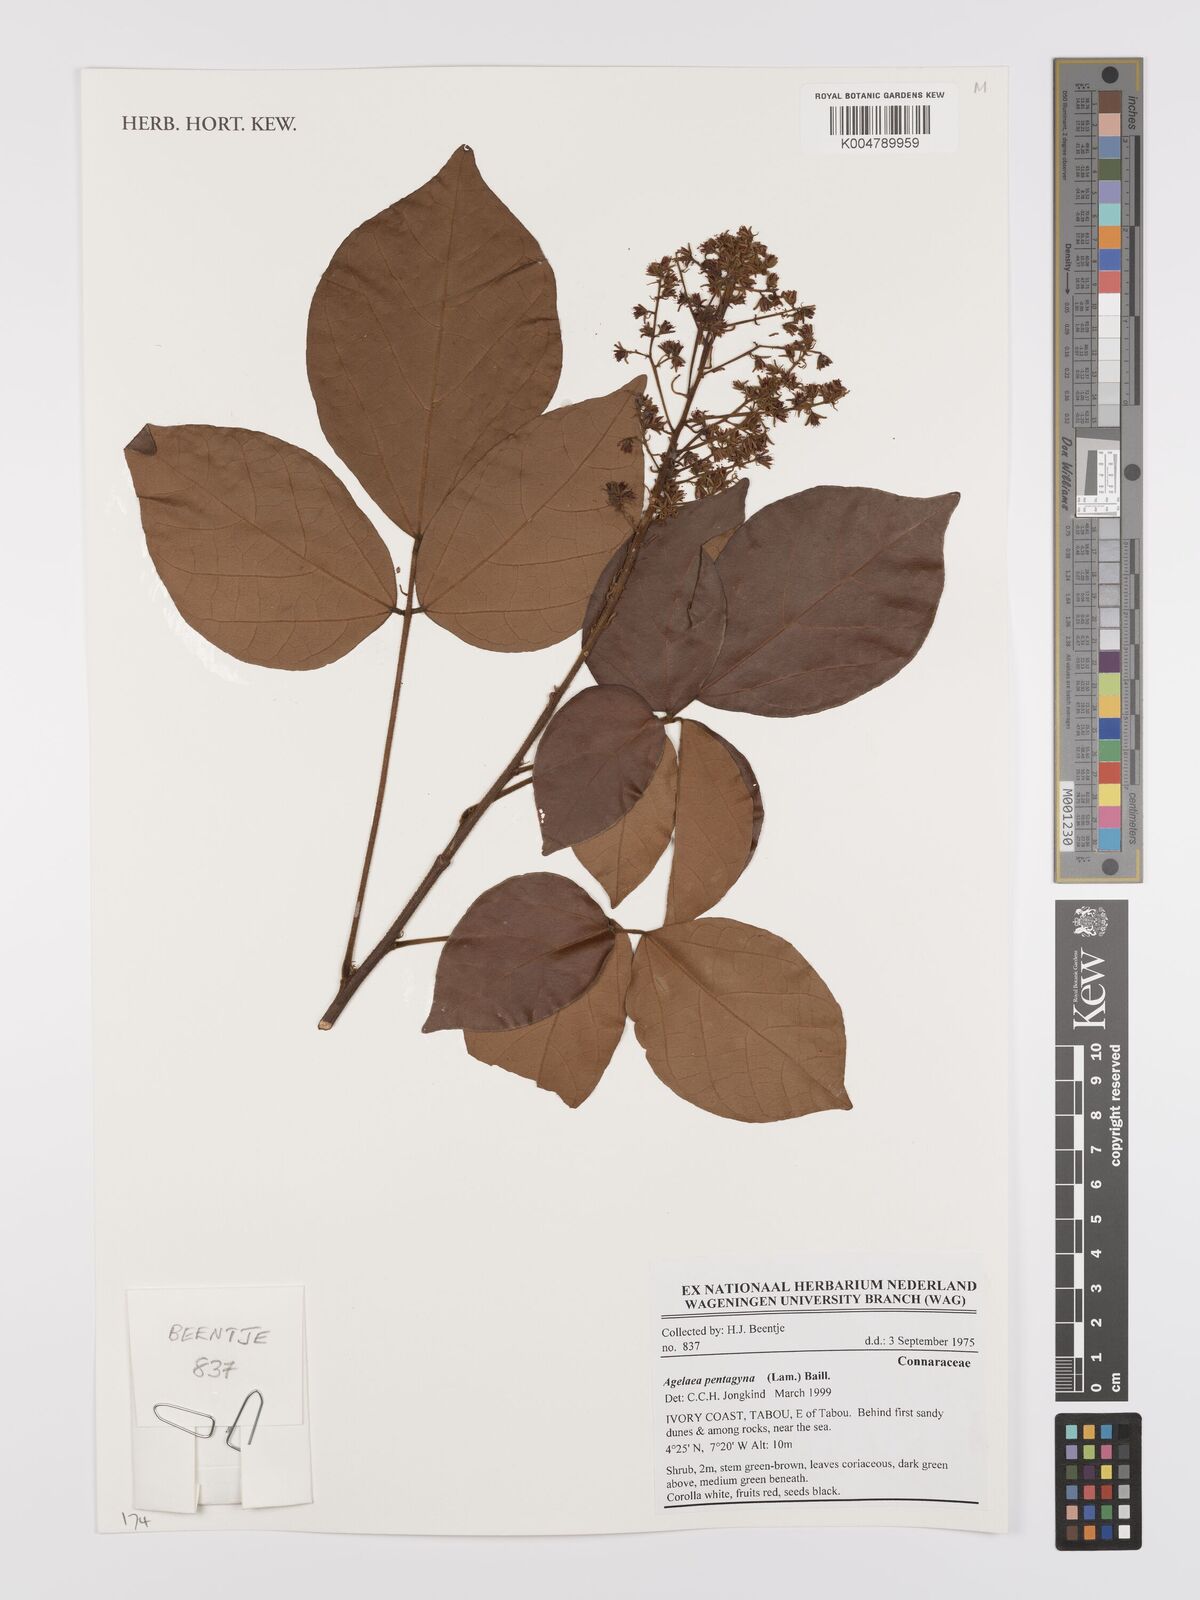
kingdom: Plantae
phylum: Tracheophyta
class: Magnoliopsida
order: Oxalidales
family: Connaraceae
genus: Agelaea
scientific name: Agelaea pentagyna
